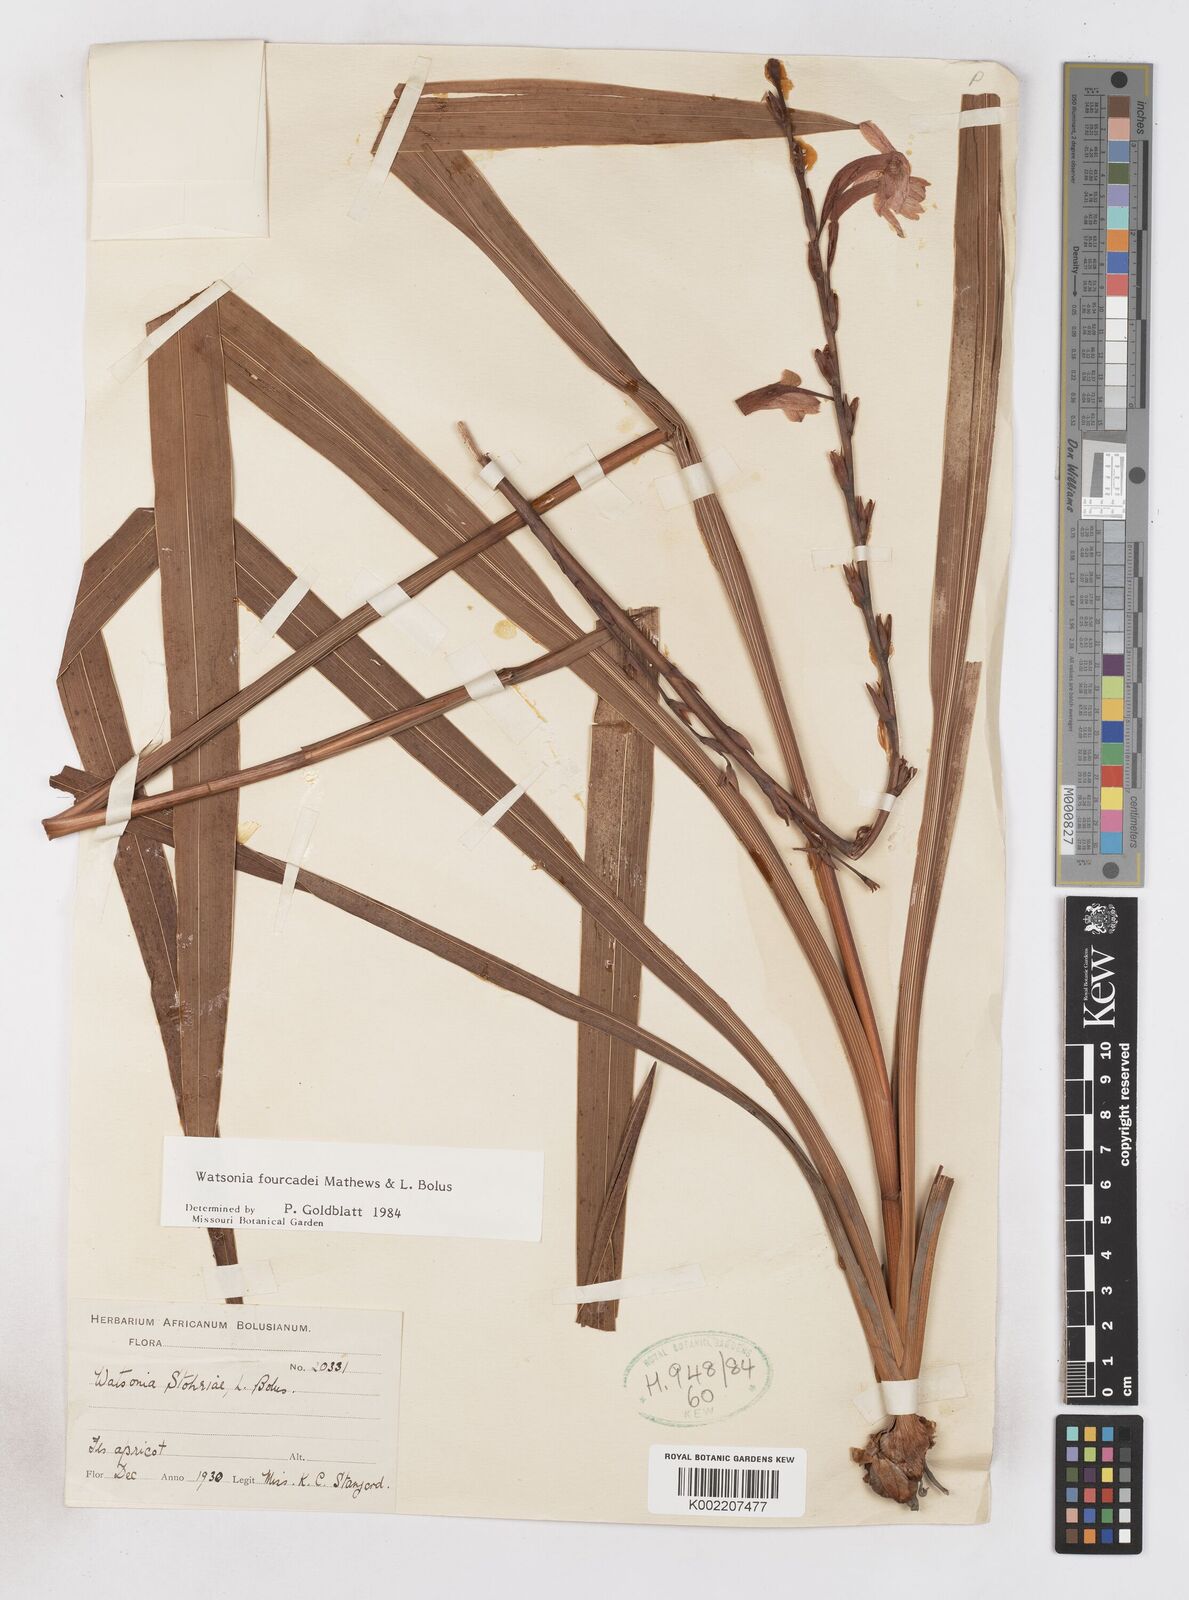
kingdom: Plantae
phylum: Tracheophyta
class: Liliopsida
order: Asparagales
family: Iridaceae
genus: Watsonia
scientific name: Watsonia fourcadei
